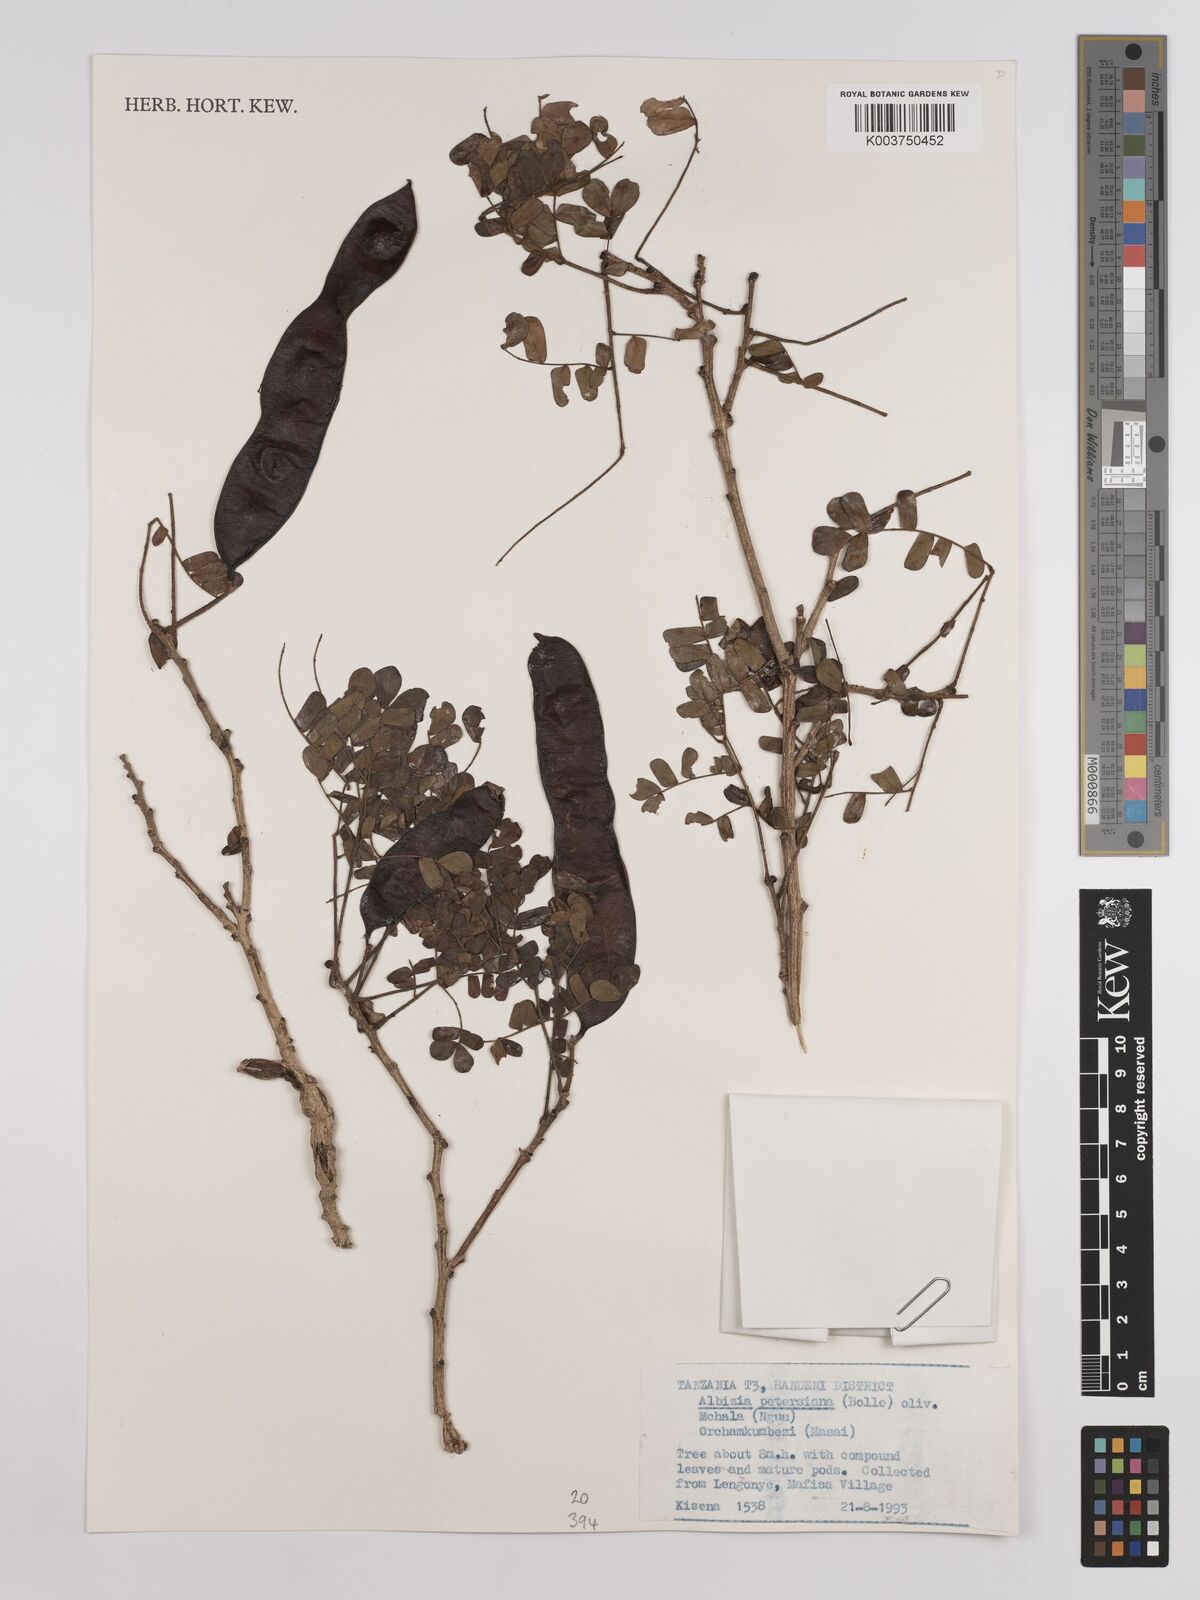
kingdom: Plantae
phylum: Tracheophyta
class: Magnoliopsida
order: Fabales
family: Fabaceae
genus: Albizia
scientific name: Albizia petersiana
